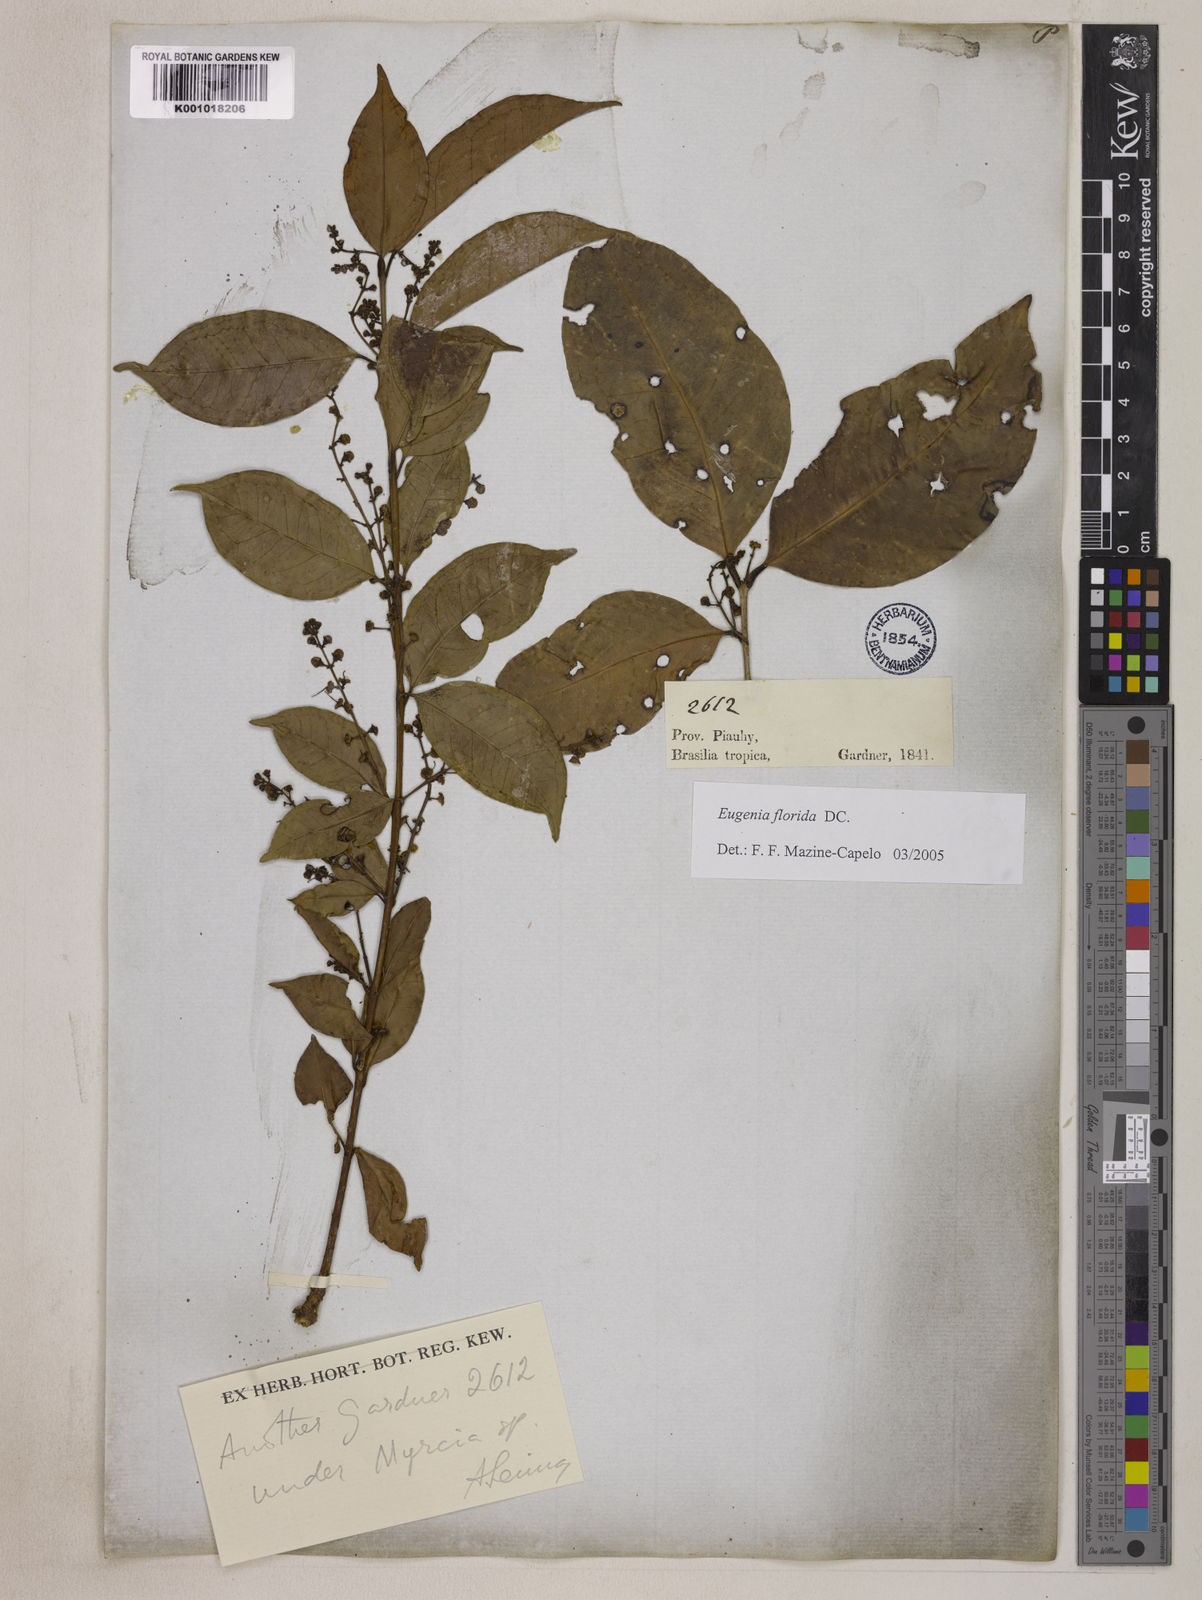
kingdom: Plantae
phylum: Tracheophyta
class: Magnoliopsida
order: Myrtales
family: Myrtaceae
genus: Eugenia
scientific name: Eugenia florida
